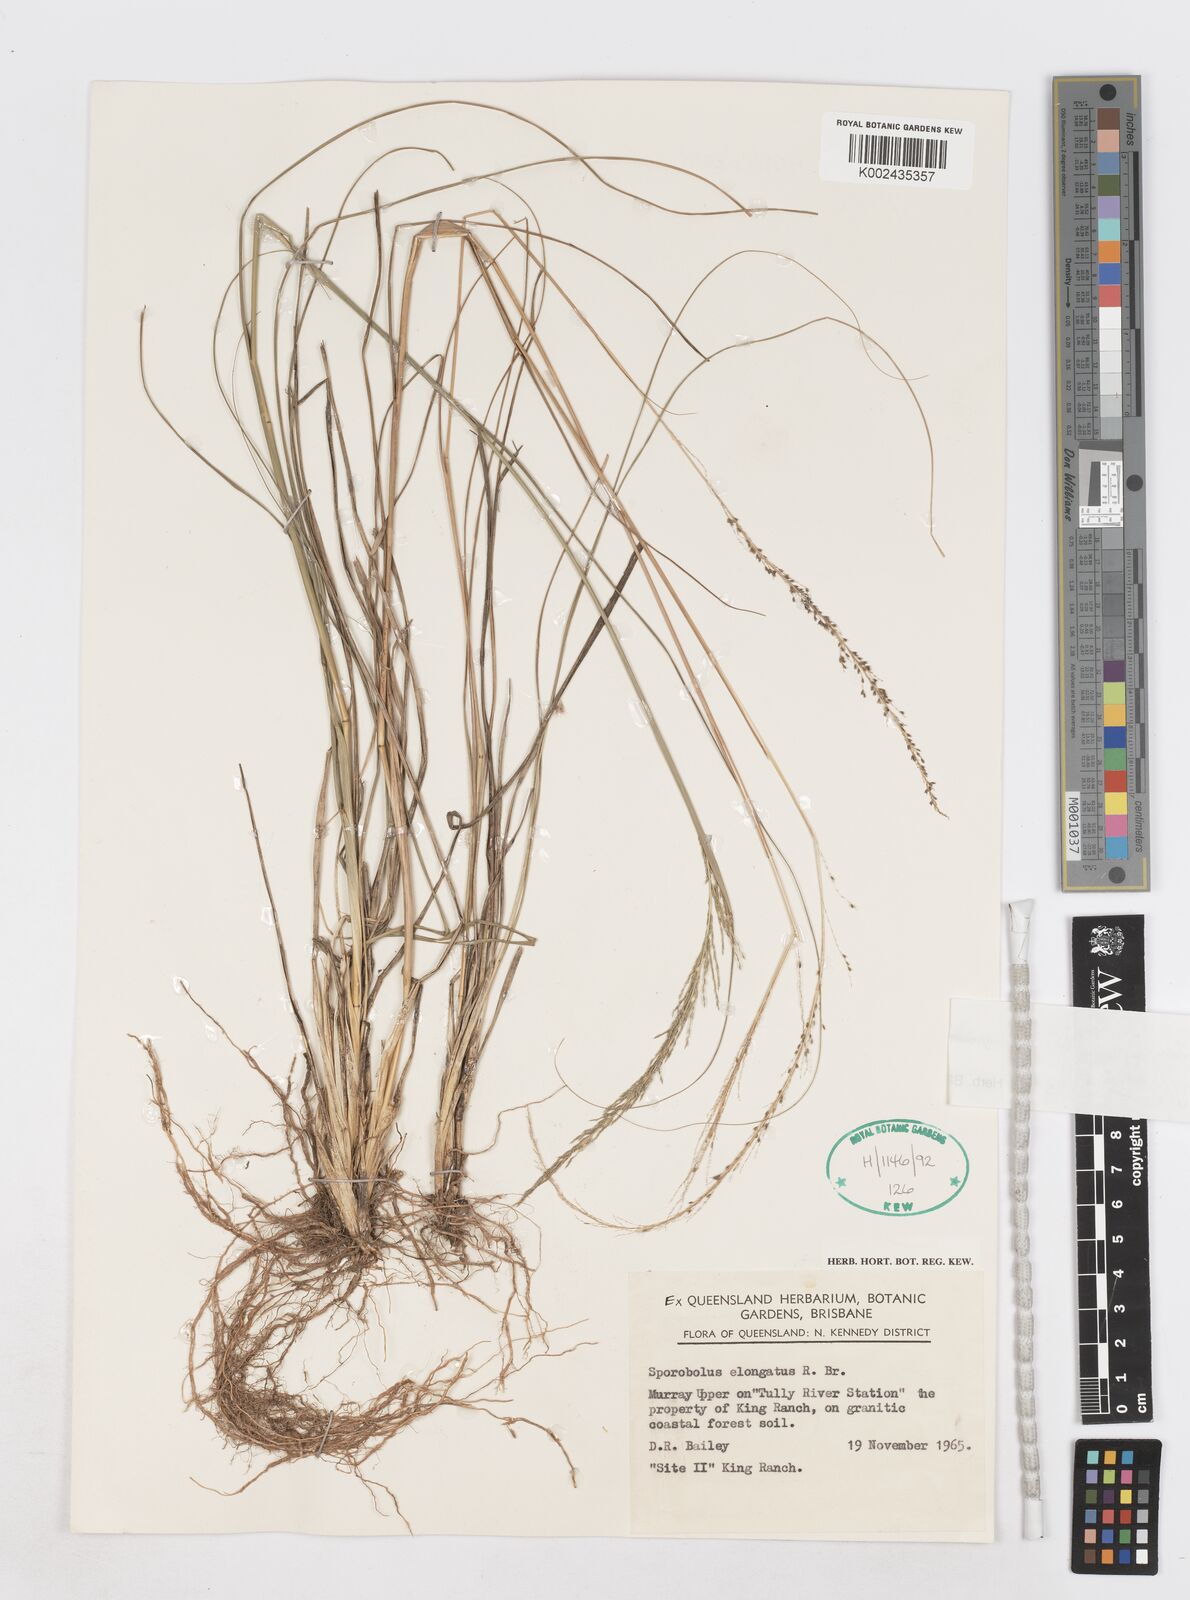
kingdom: Plantae
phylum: Tracheophyta
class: Liliopsida
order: Poales
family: Poaceae
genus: Sporobolus
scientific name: Sporobolus pyramidalis
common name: West indian dropseed
